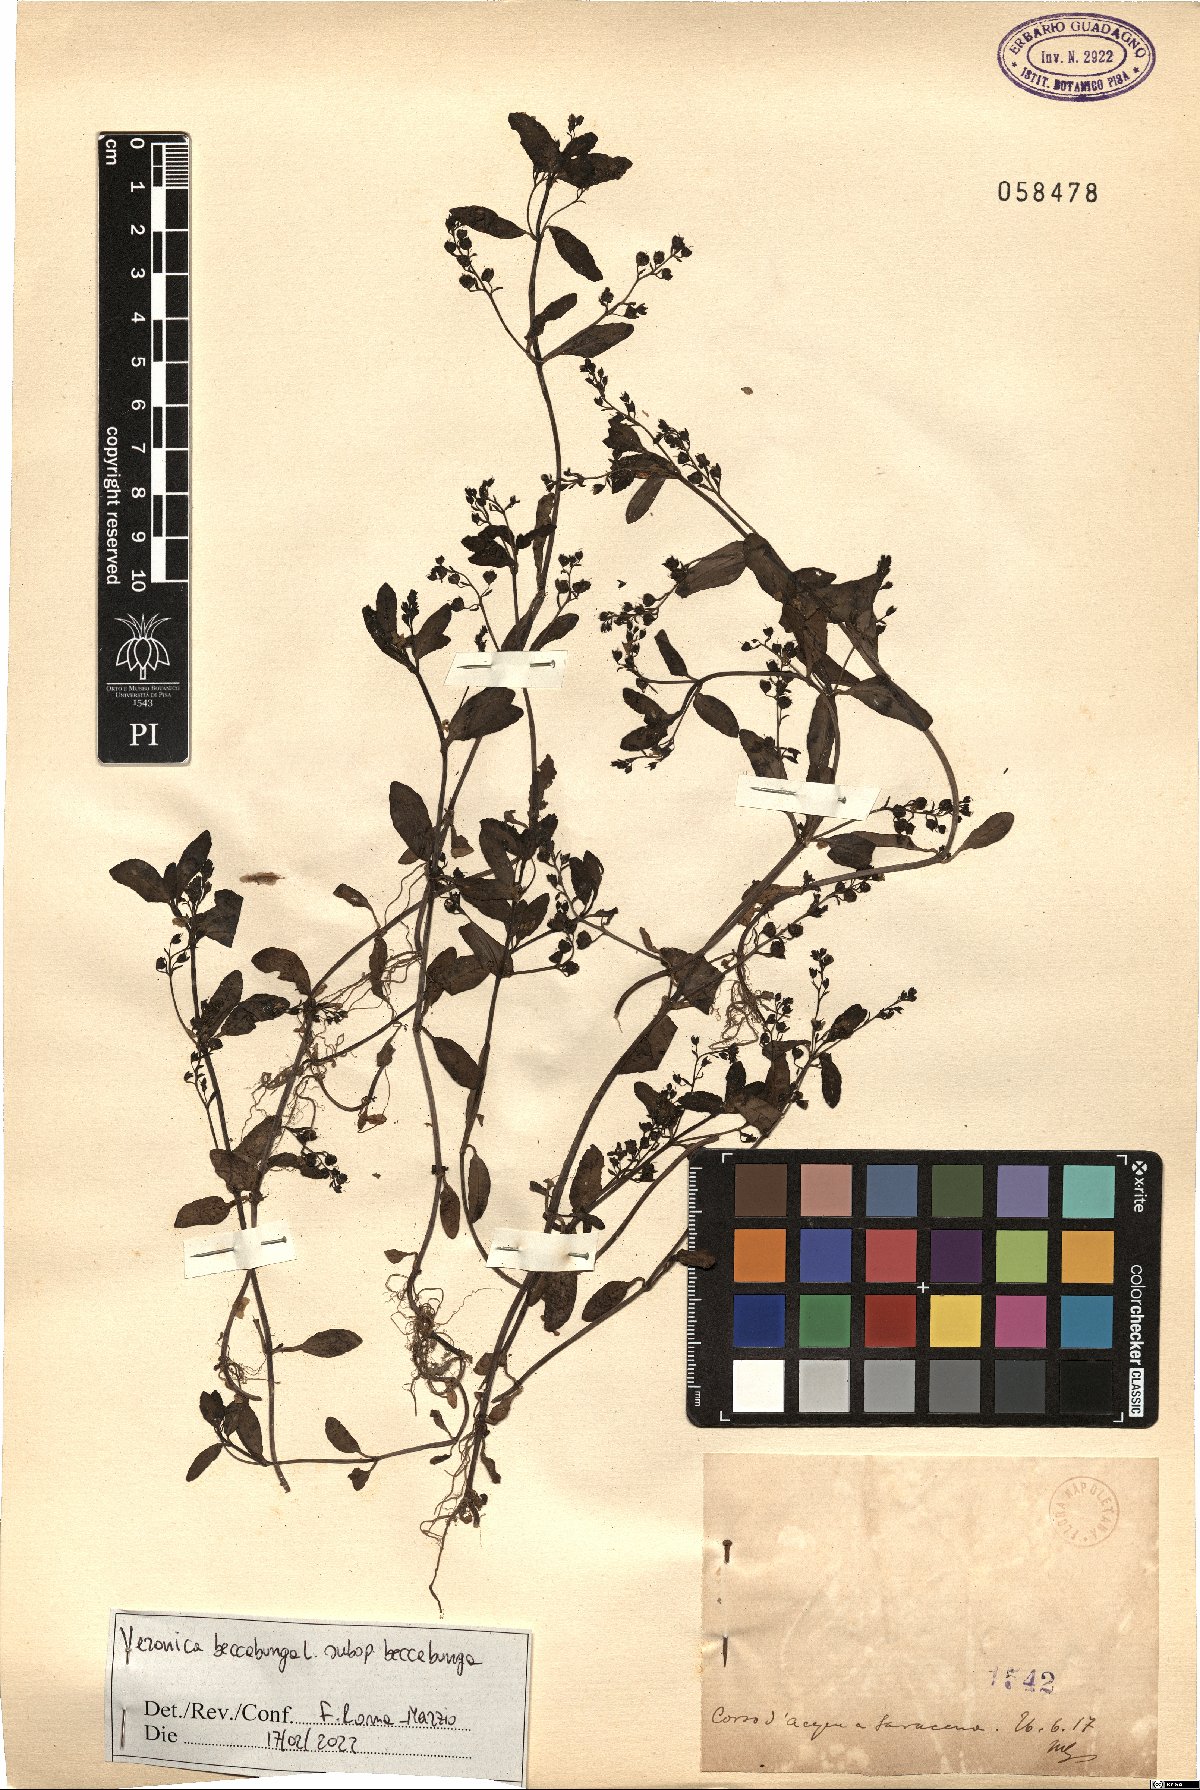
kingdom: Plantae
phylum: Tracheophyta
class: Magnoliopsida
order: Lamiales
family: Plantaginaceae
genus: Veronica
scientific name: Veronica beccabunga
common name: Brooklime
